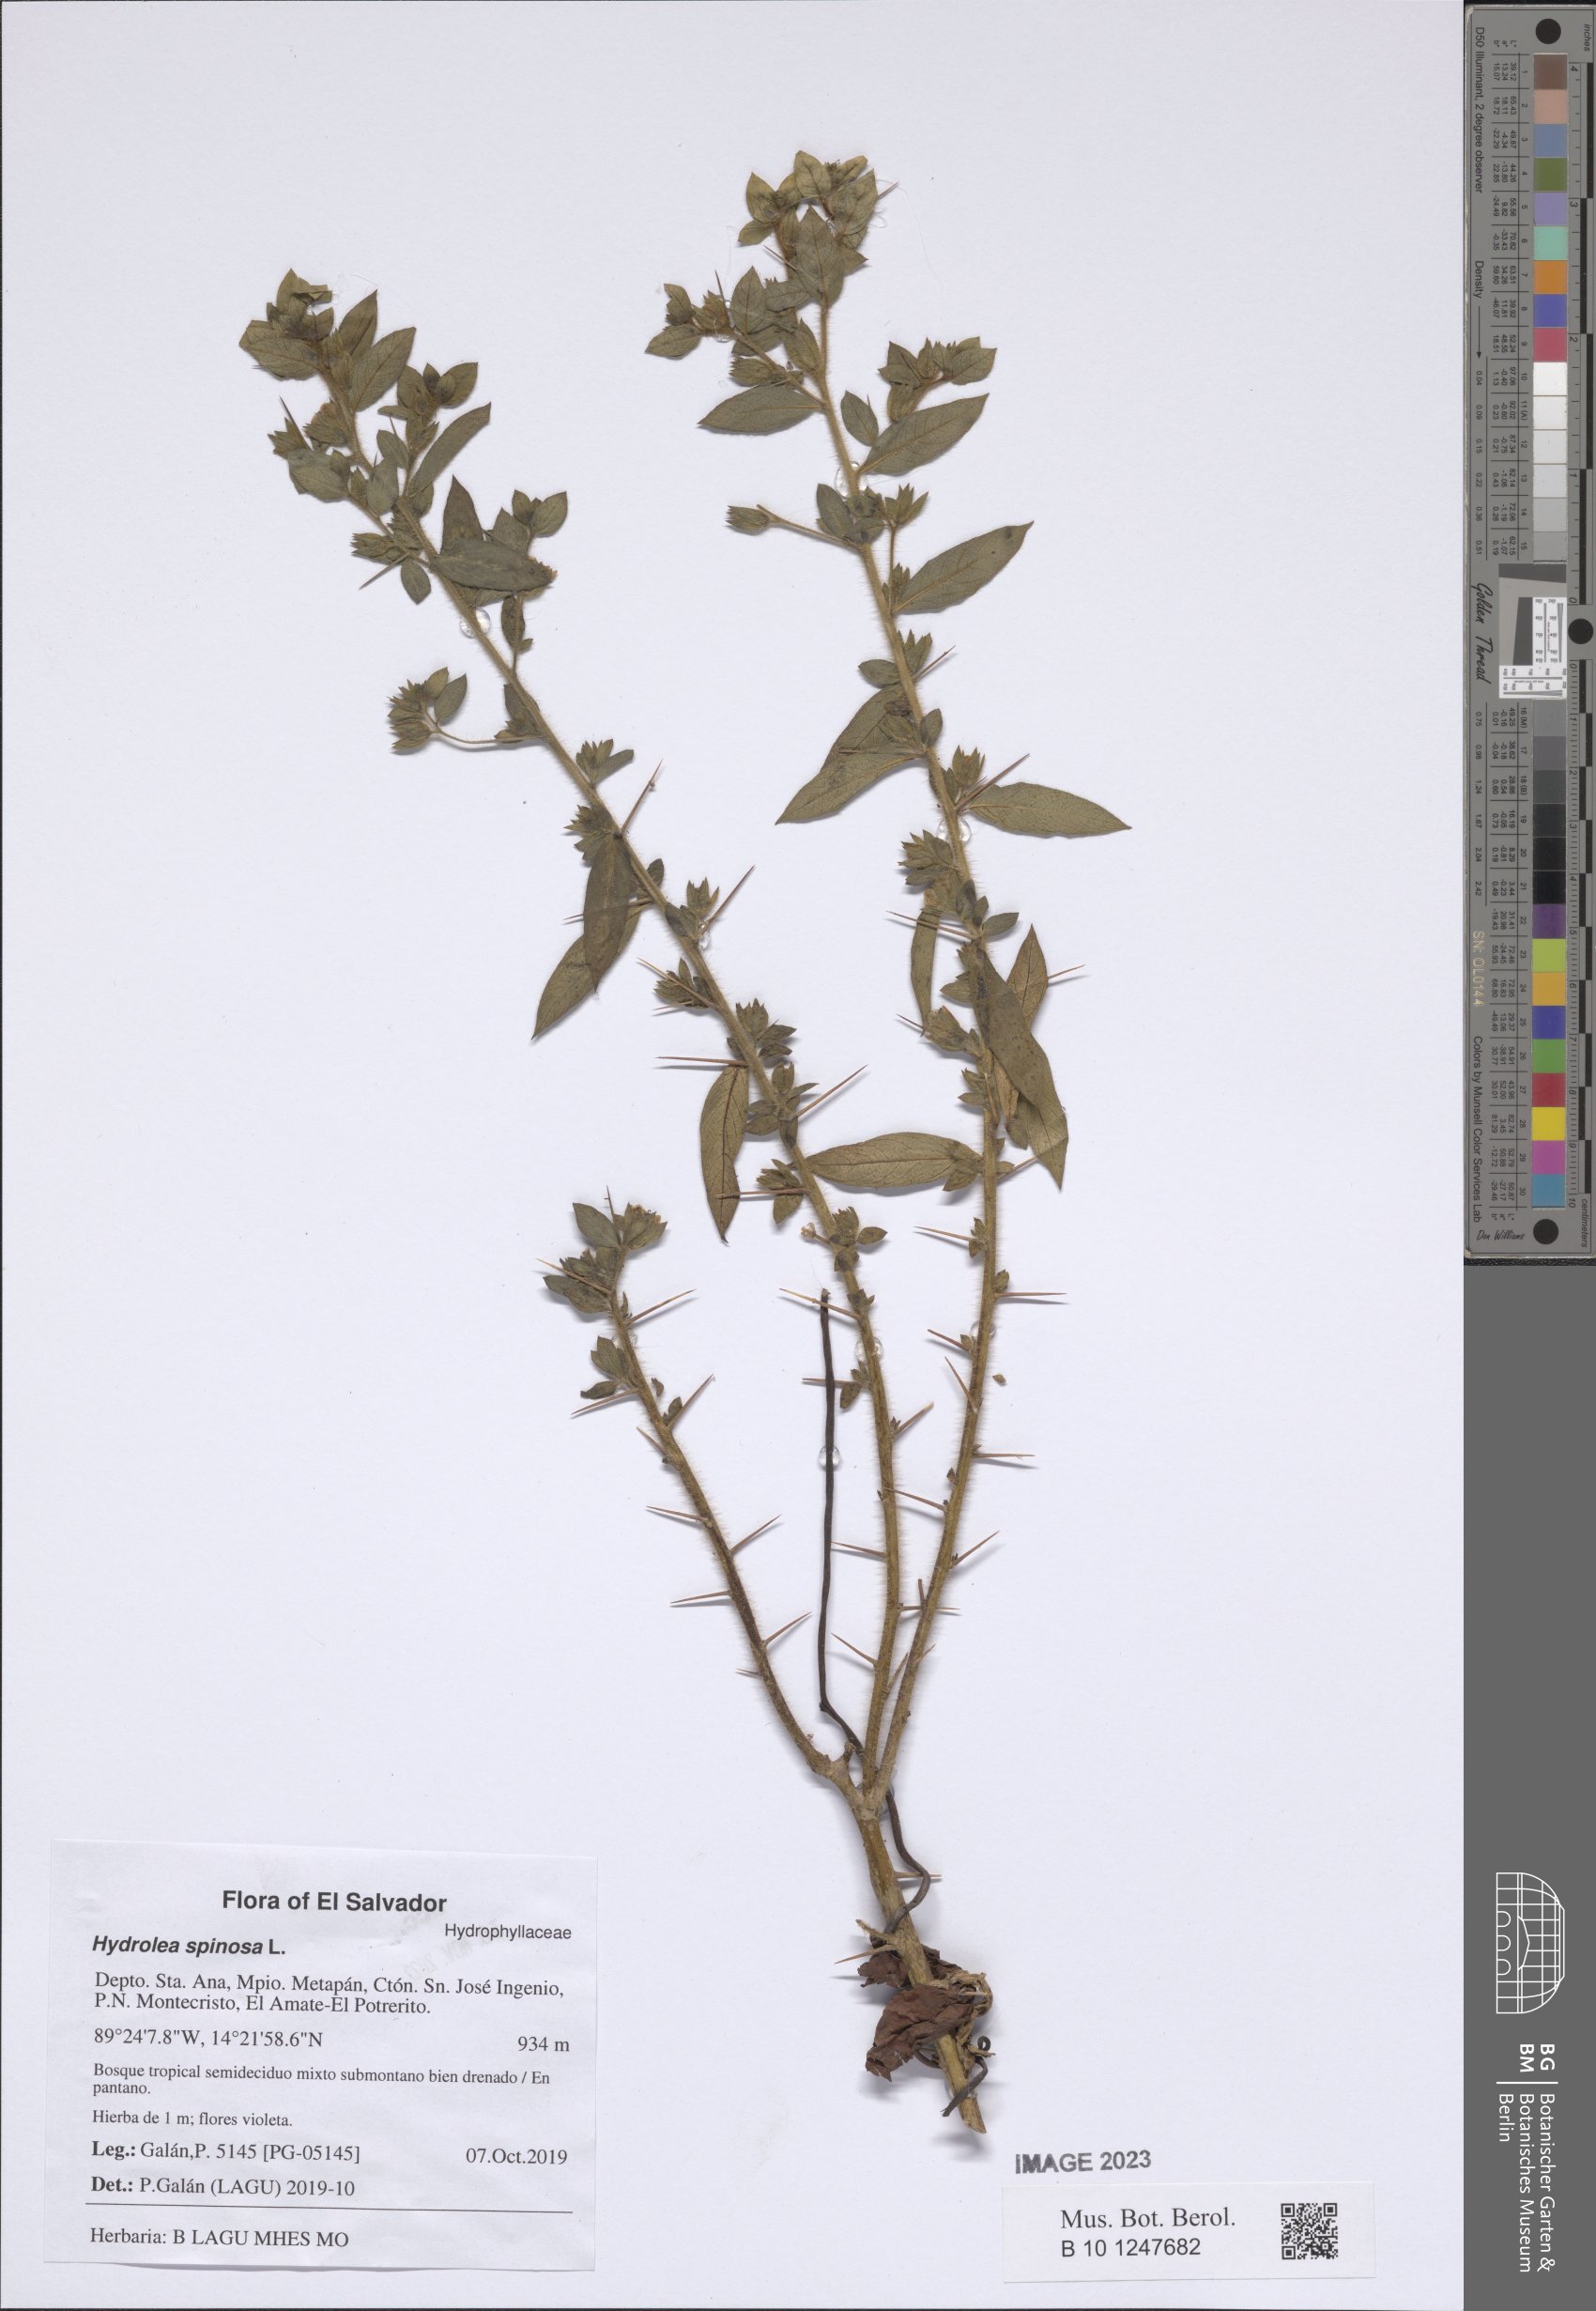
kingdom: Plantae
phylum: Tracheophyta
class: Magnoliopsida
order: Solanales
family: Hydroleaceae
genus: Hydrolea
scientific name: Hydrolea spinosa
